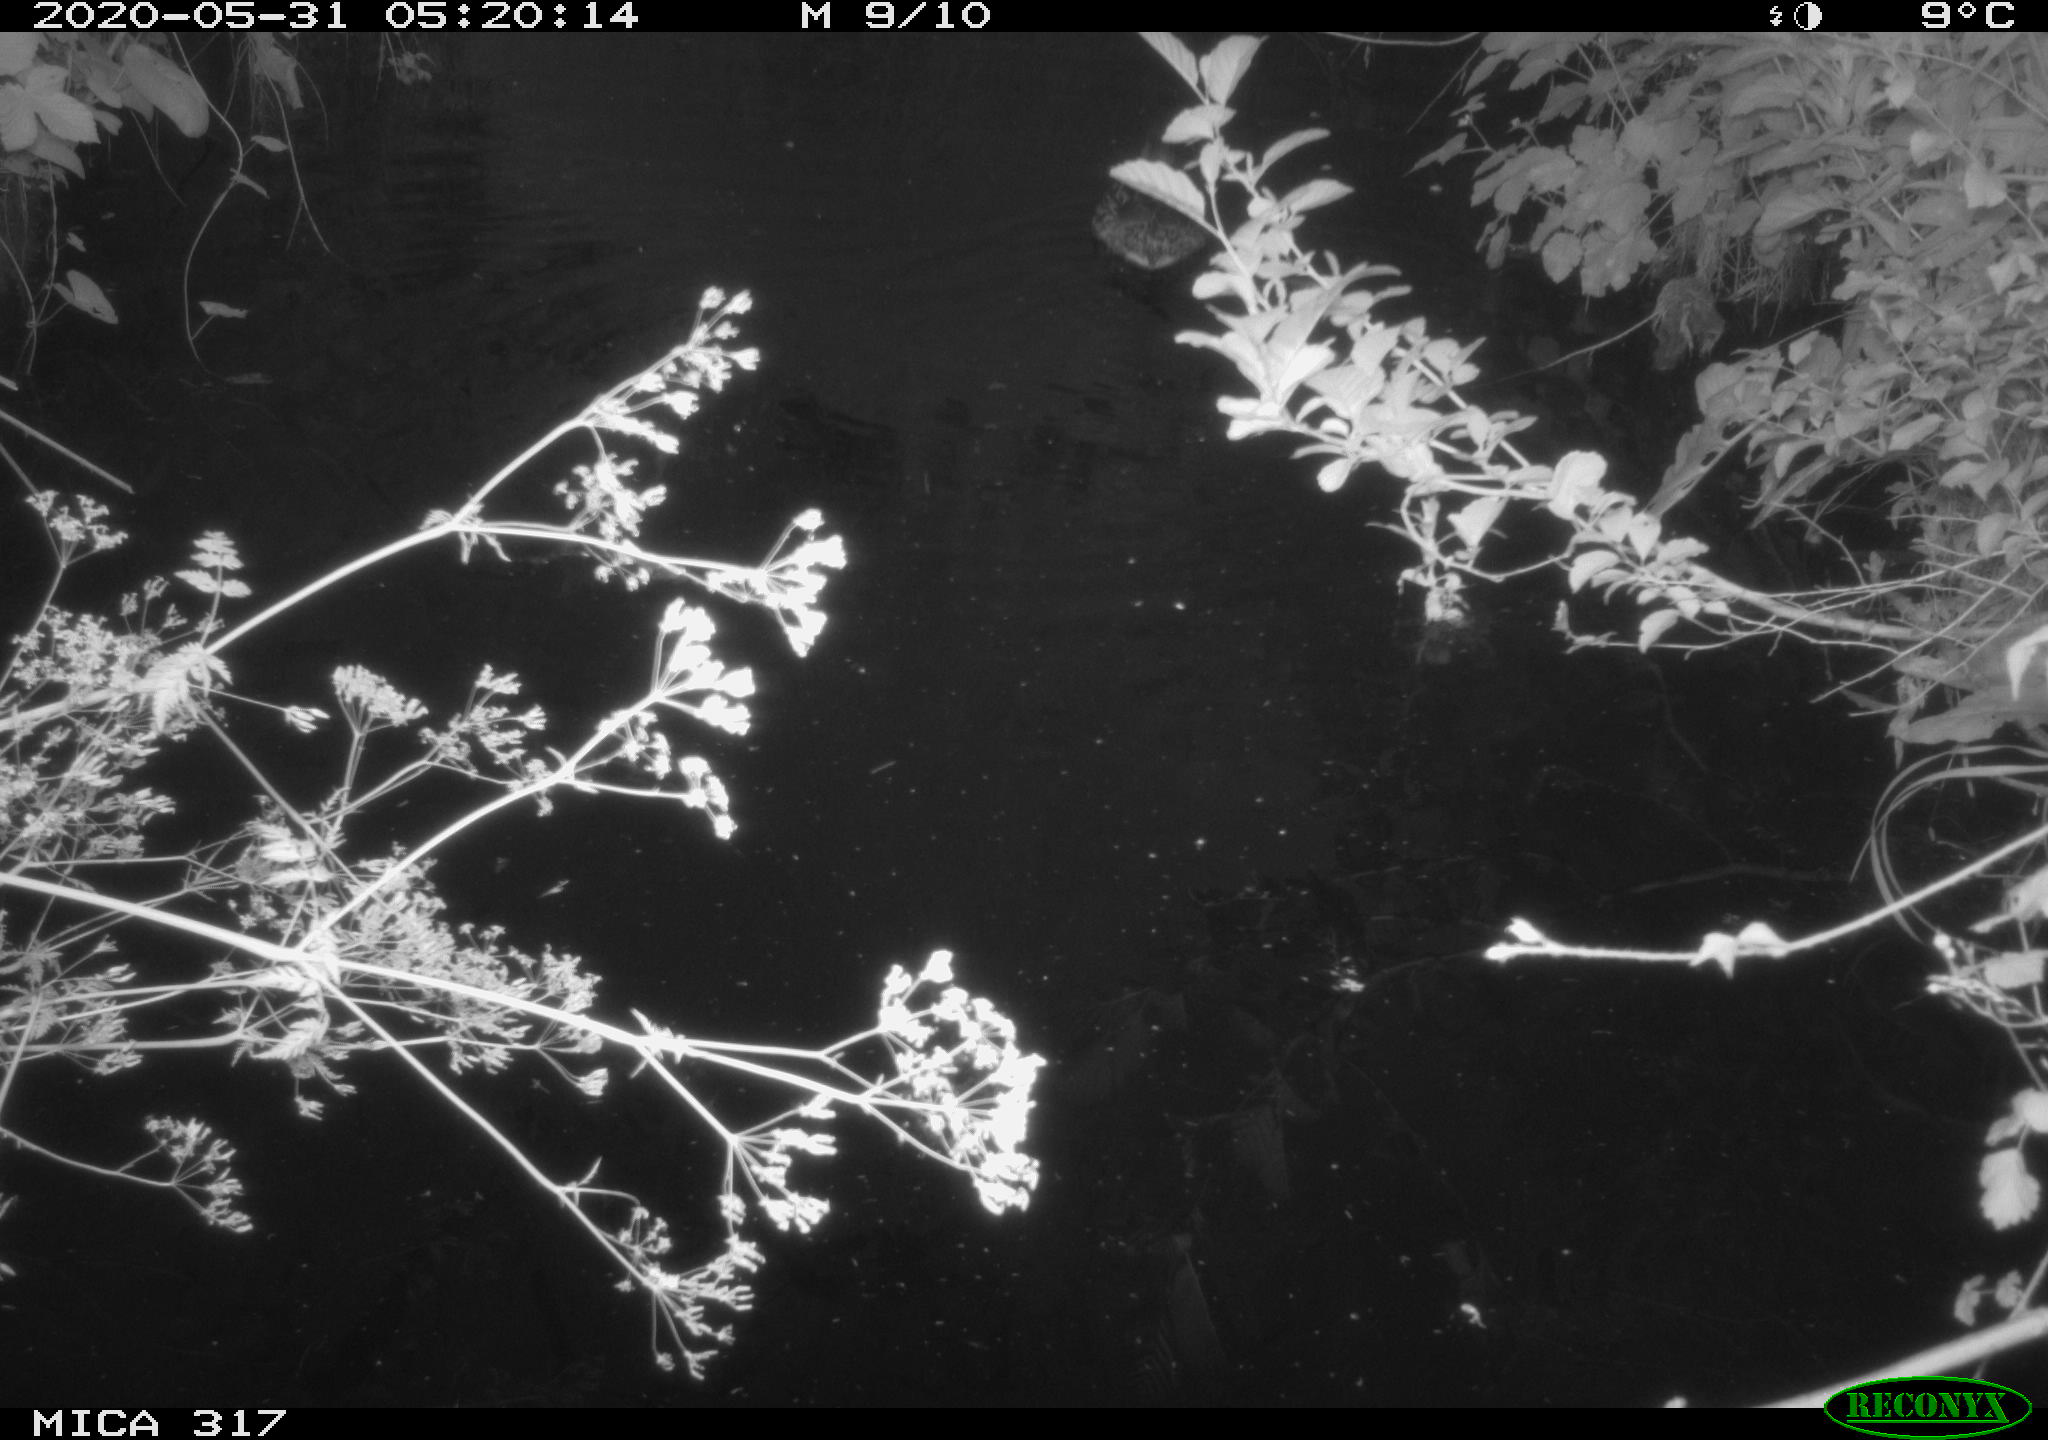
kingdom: Animalia
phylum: Chordata
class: Aves
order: Anseriformes
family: Anatidae
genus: Anas
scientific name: Anas platyrhynchos
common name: Mallard
